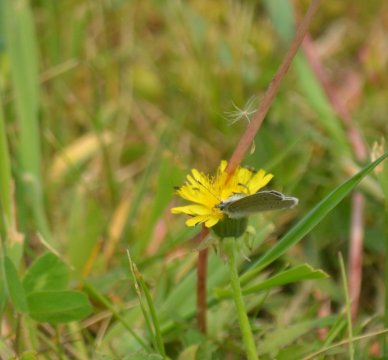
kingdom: Animalia
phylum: Arthropoda
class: Insecta
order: Lepidoptera
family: Lycaenidae
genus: Glaucopsyche
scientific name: Glaucopsyche lygdamus
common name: Silvery Blue
